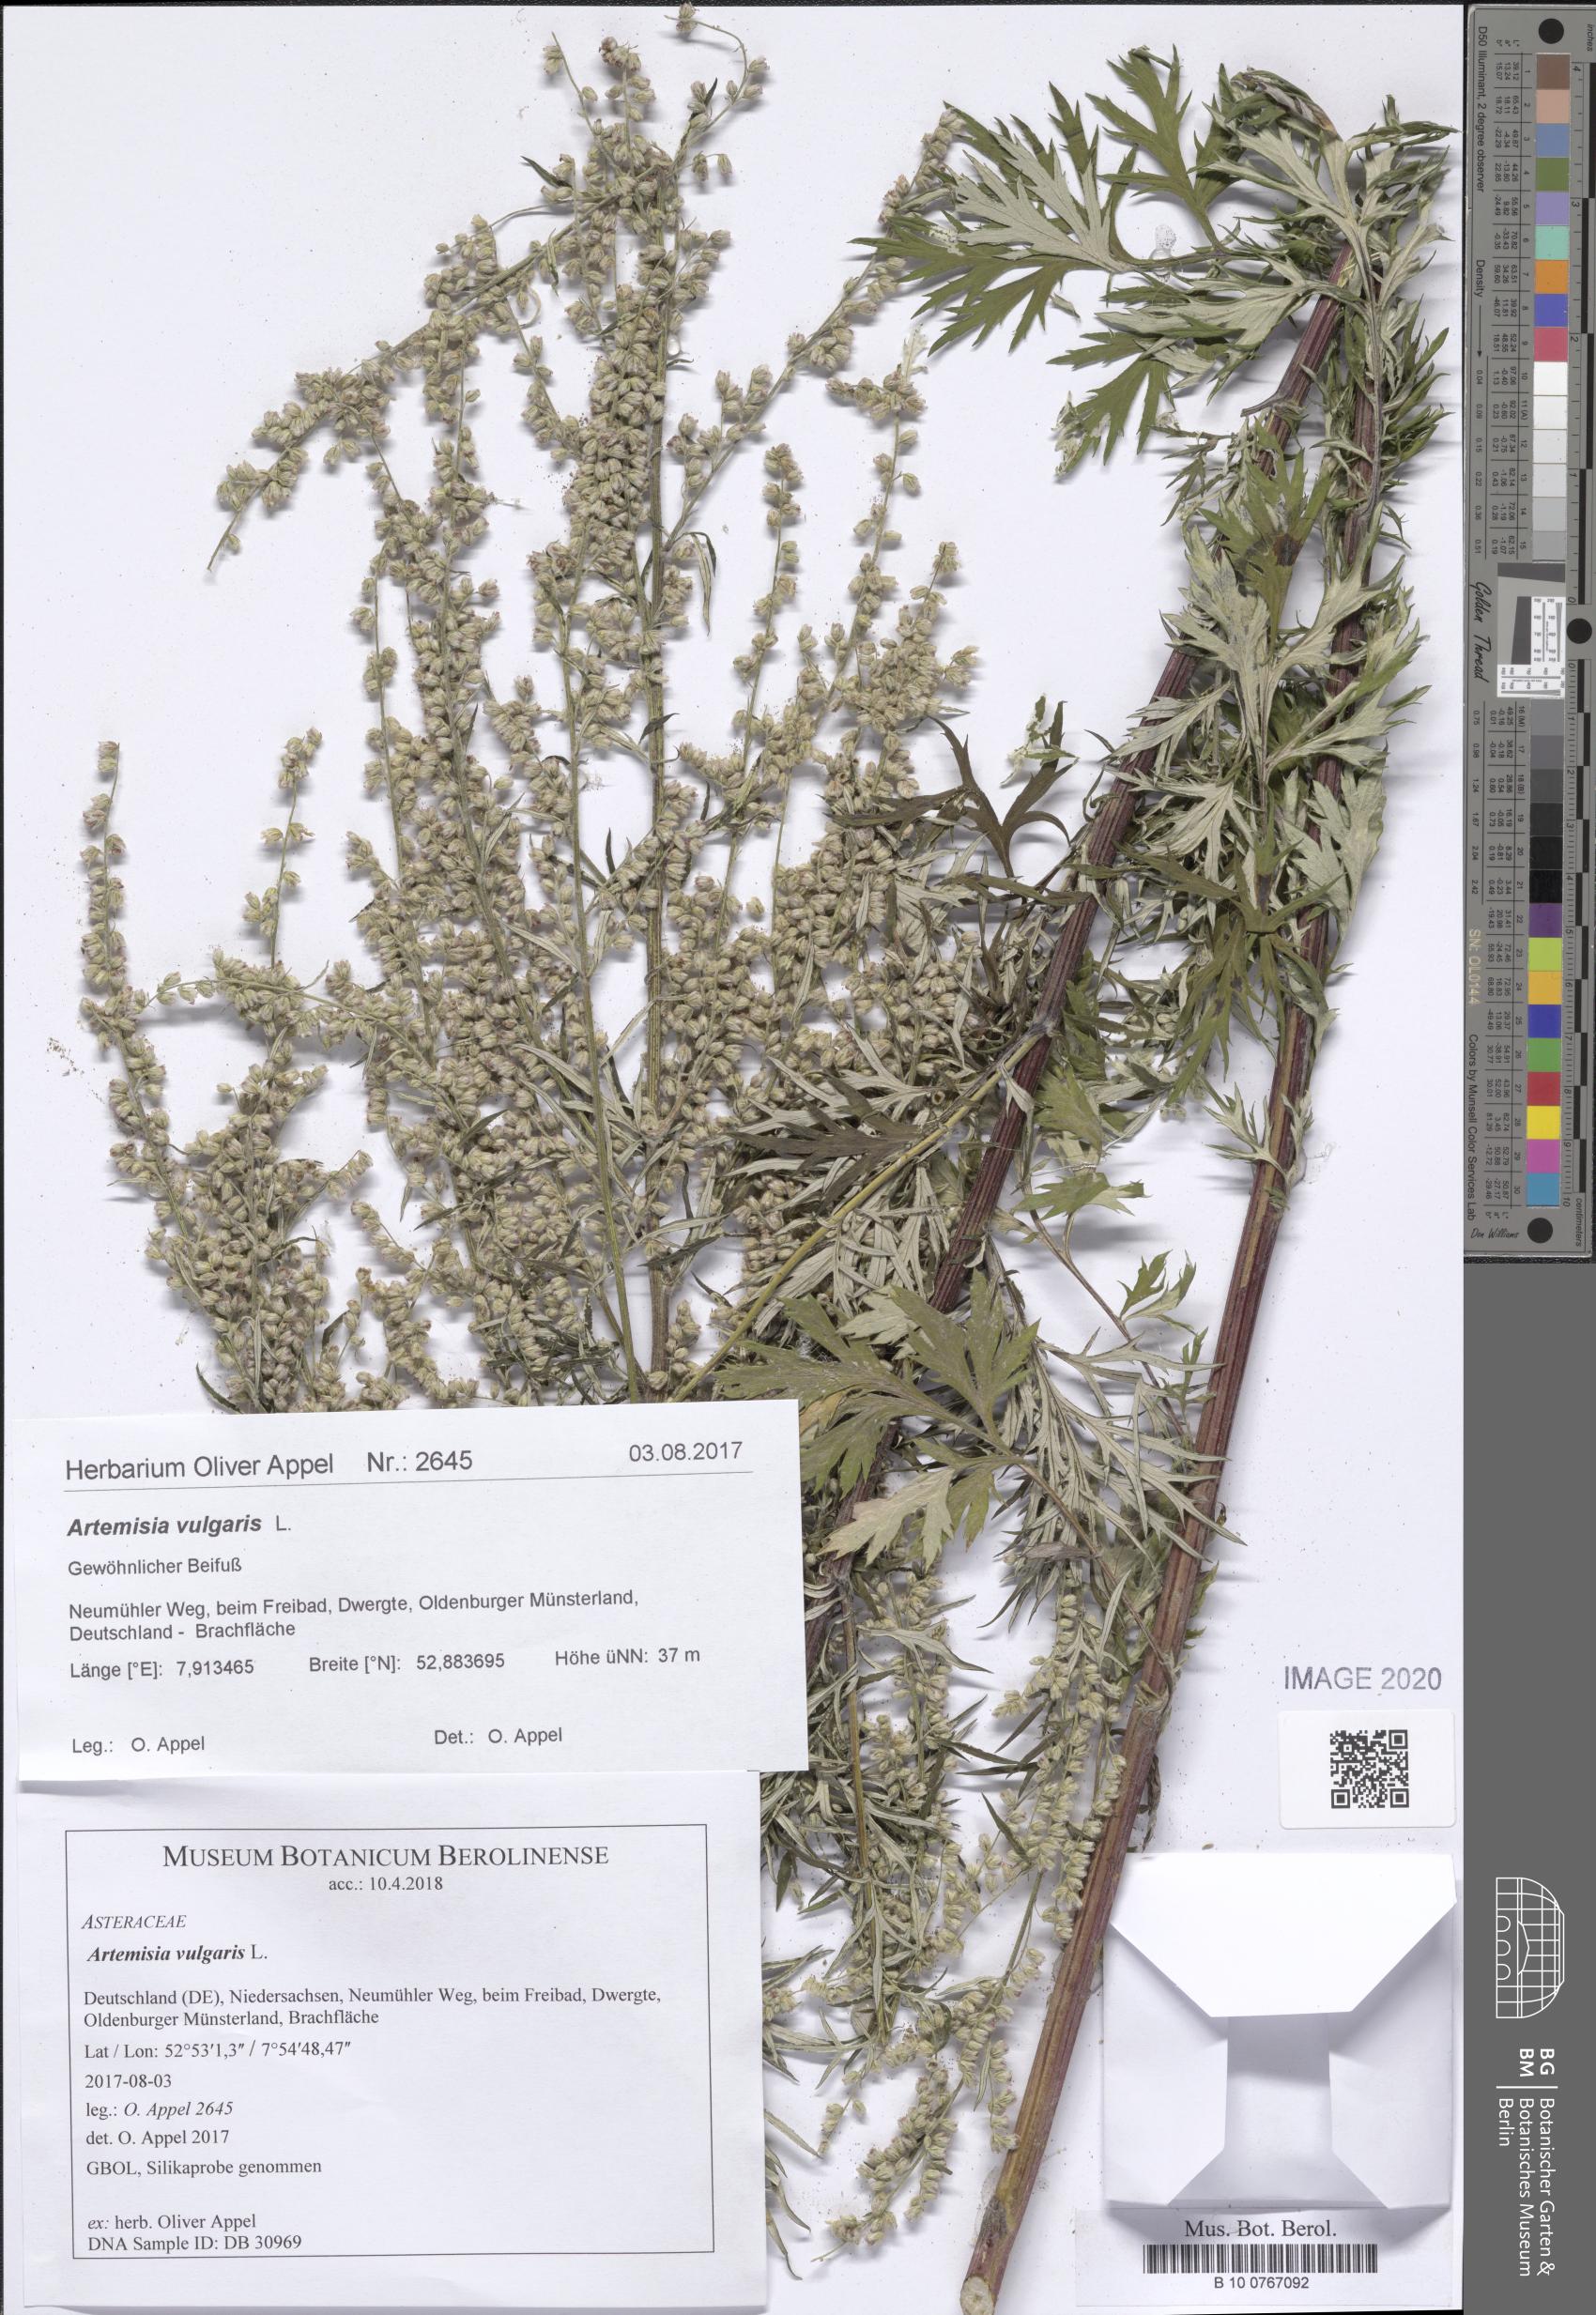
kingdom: Plantae
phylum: Tracheophyta
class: Magnoliopsida
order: Asterales
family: Asteraceae
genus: Artemisia
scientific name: Artemisia vulgaris
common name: Mugwort
